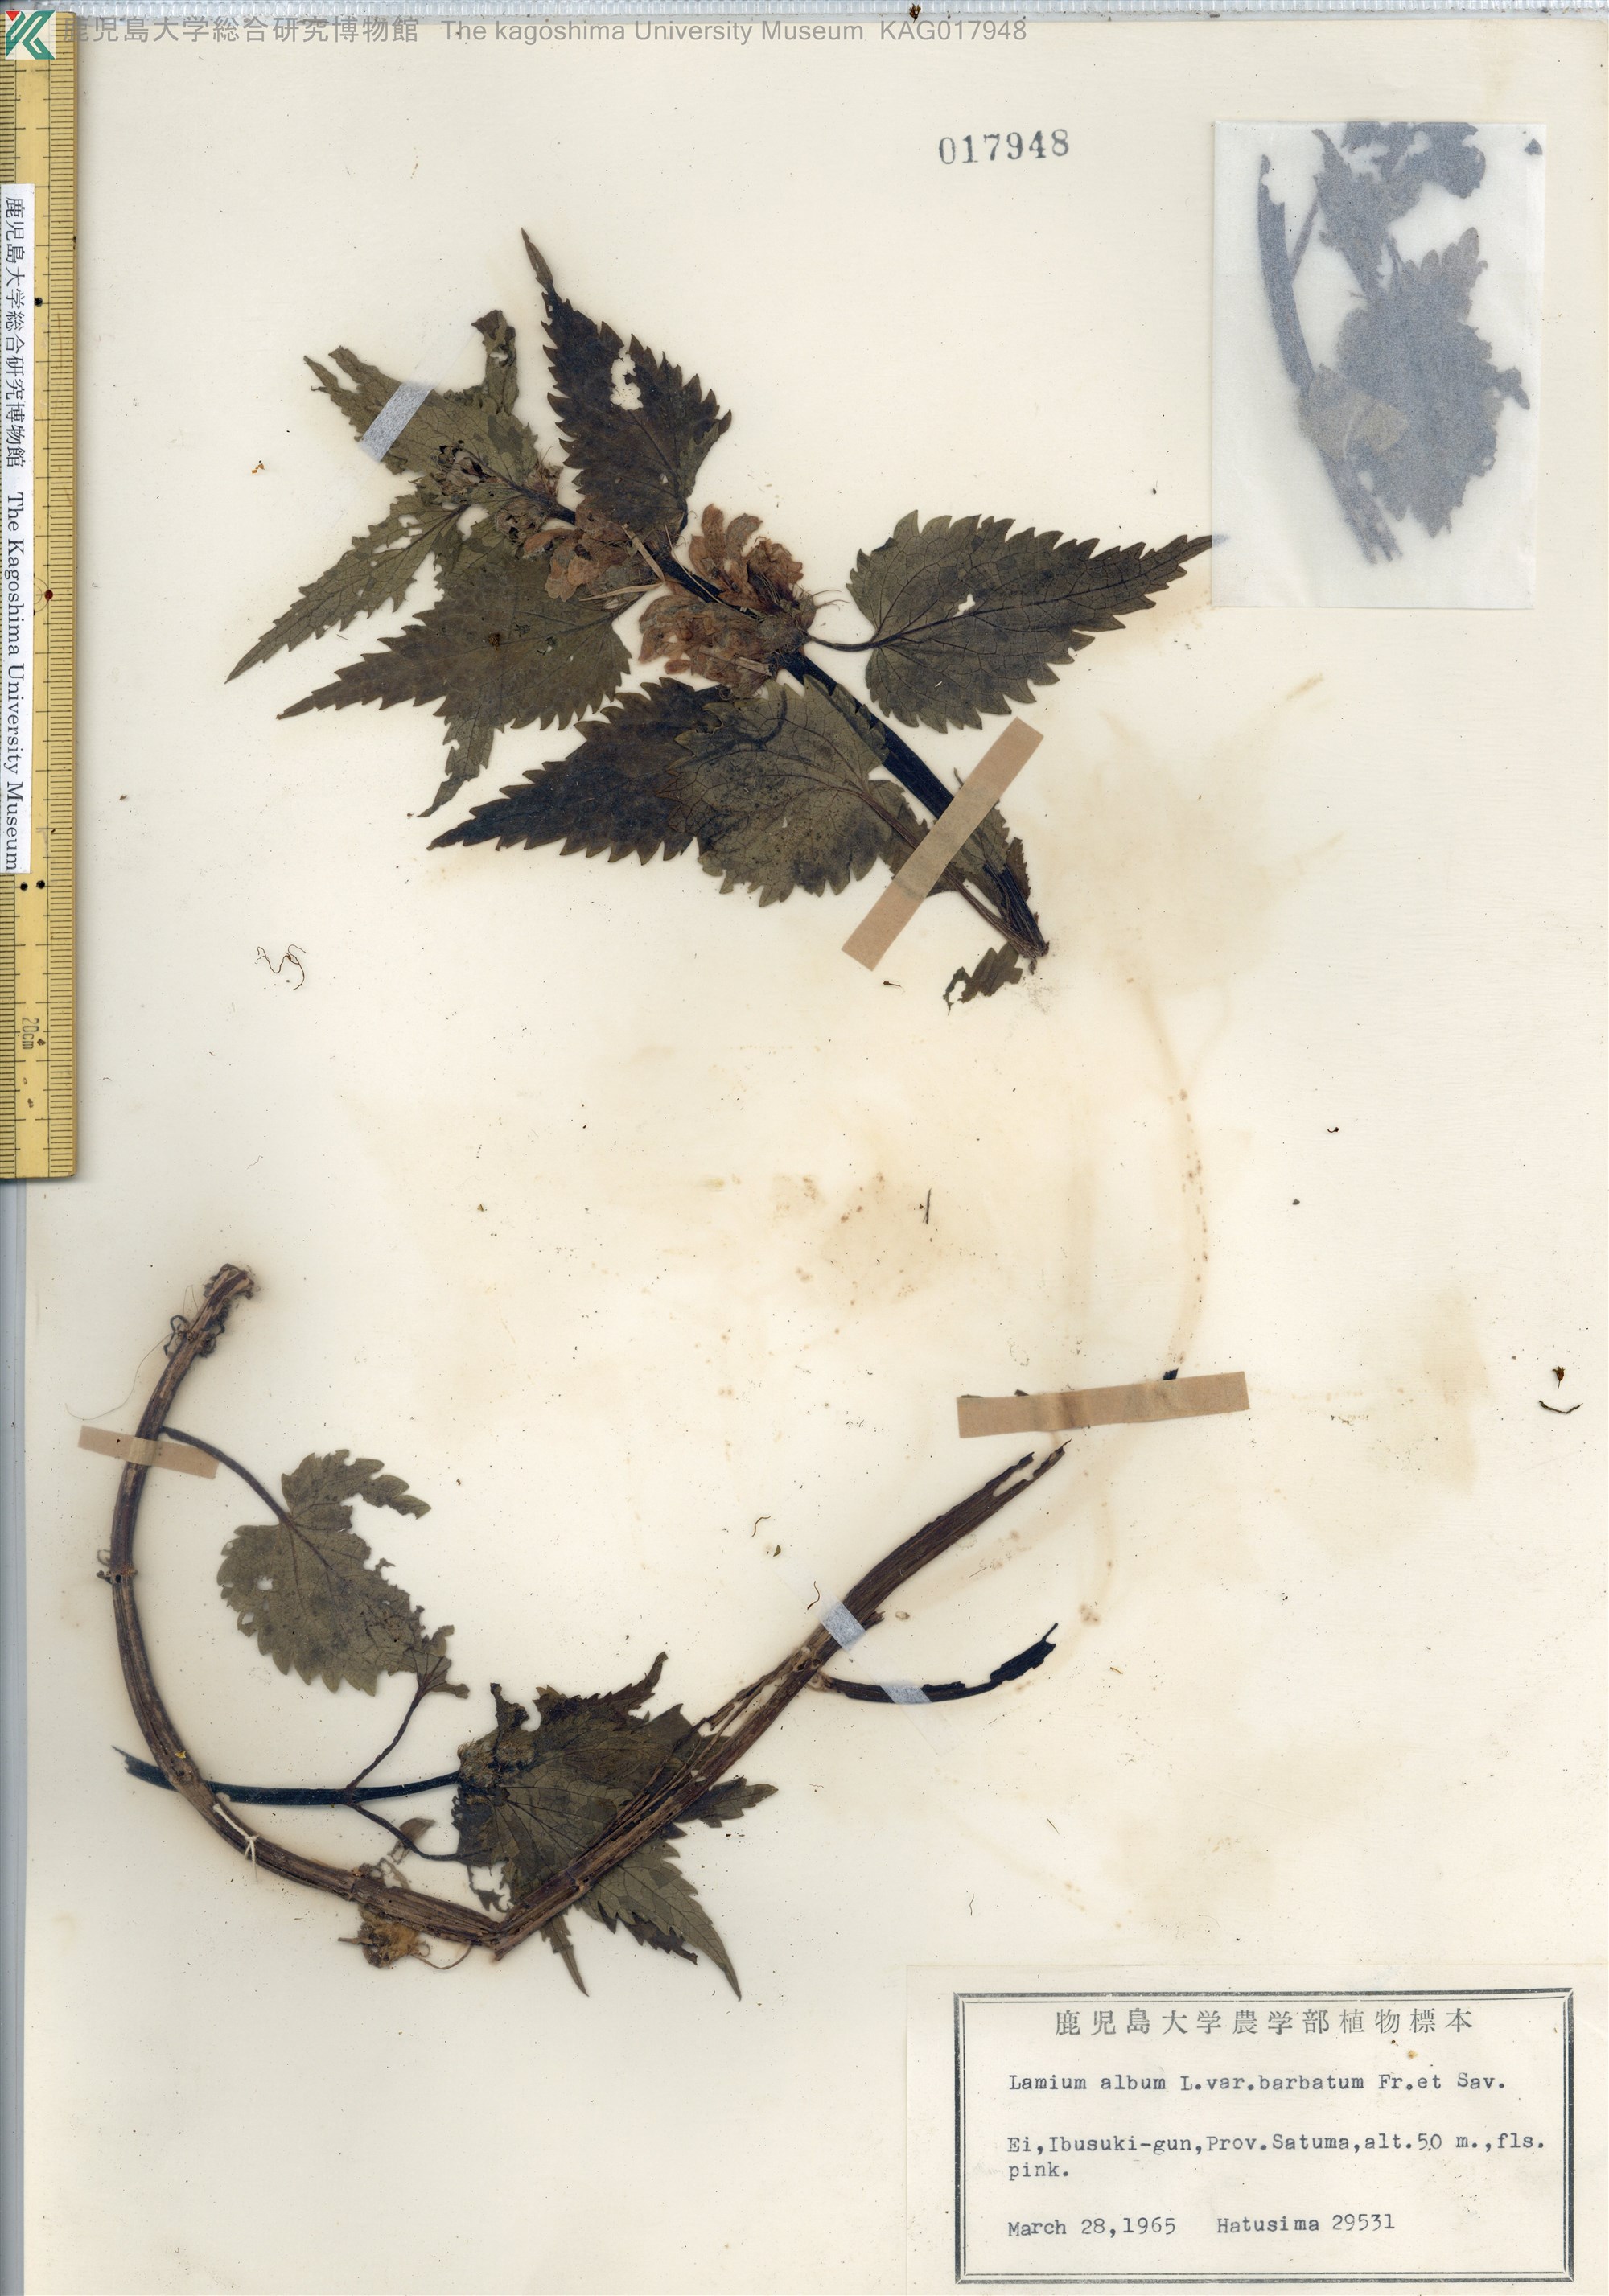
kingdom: Plantae
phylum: Tracheophyta
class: Magnoliopsida
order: Lamiales
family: Lamiaceae
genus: Lamium
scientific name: Lamium album
